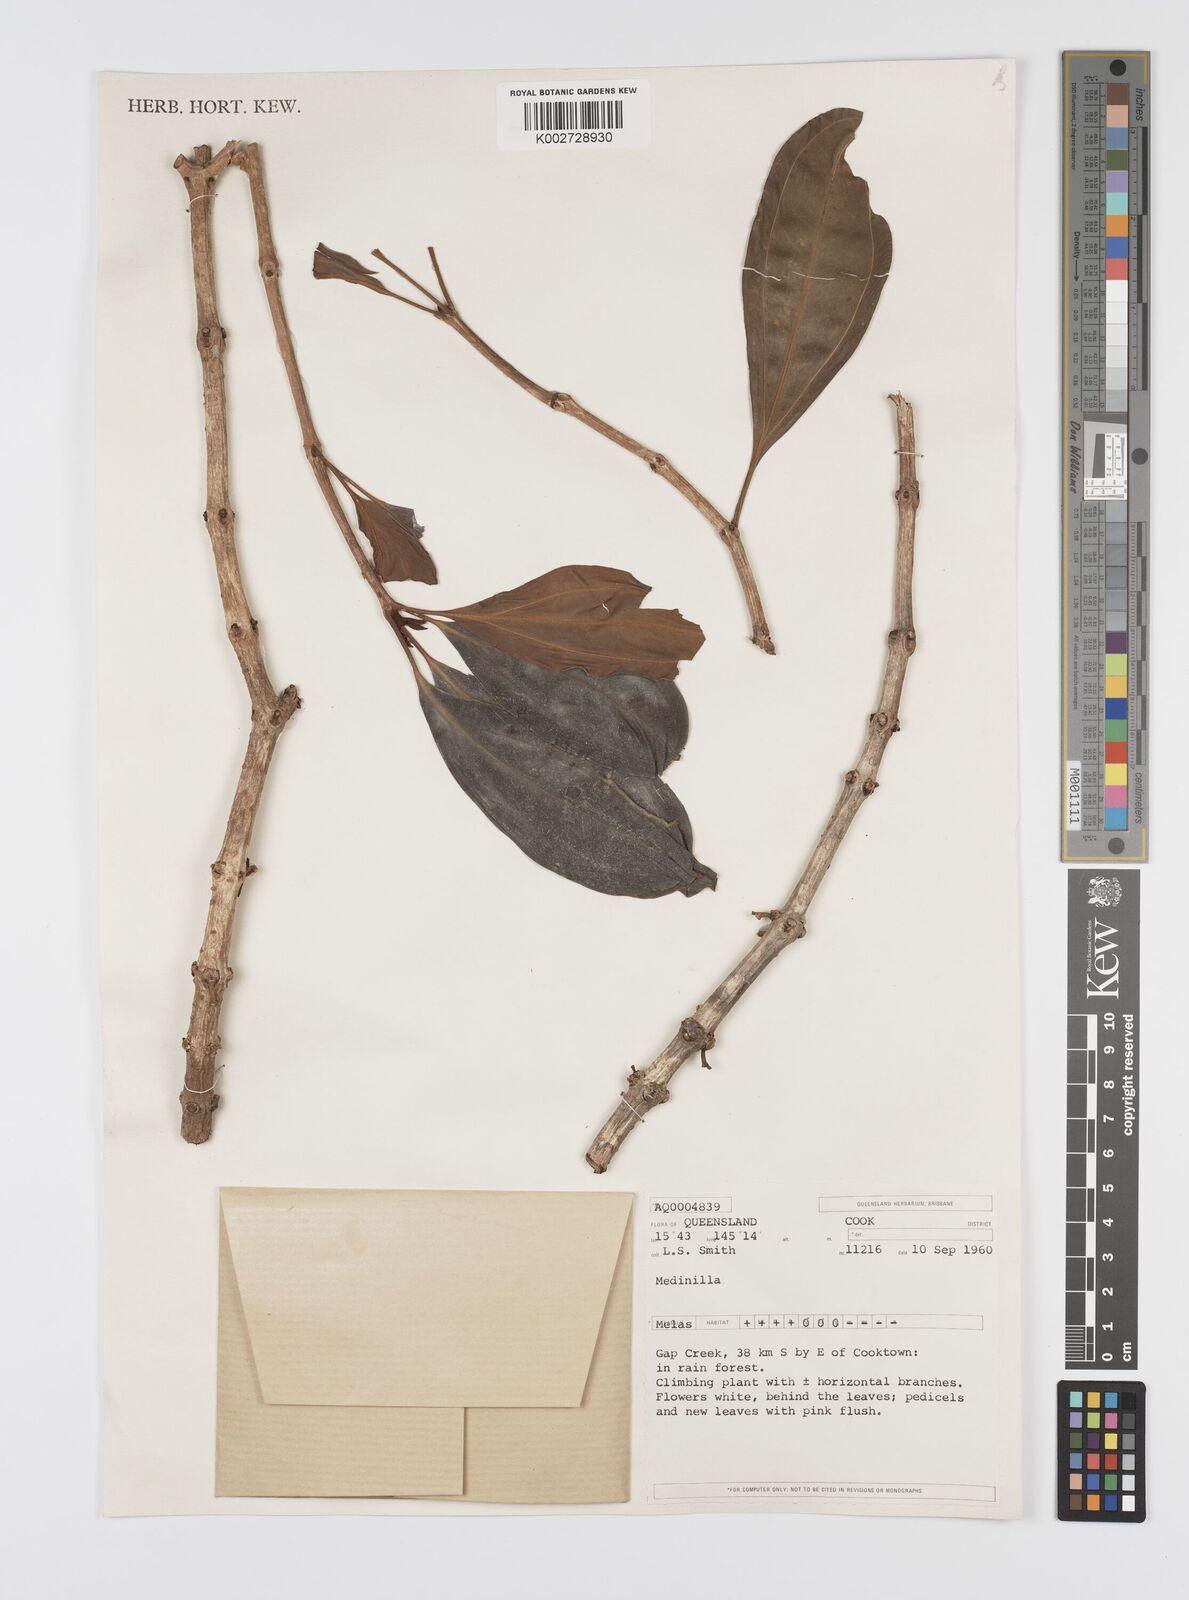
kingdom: Plantae
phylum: Tracheophyta
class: Magnoliopsida
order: Myrtales
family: Melastomataceae
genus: Medinilla
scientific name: Medinilla balls-headleyi
